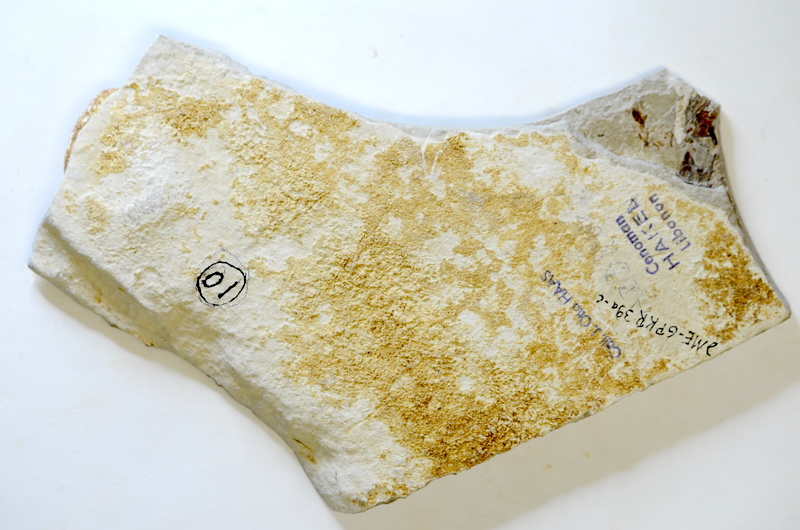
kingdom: Animalia
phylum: Chordata
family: Pycnodontes
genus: Nursallia
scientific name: Nursallia
